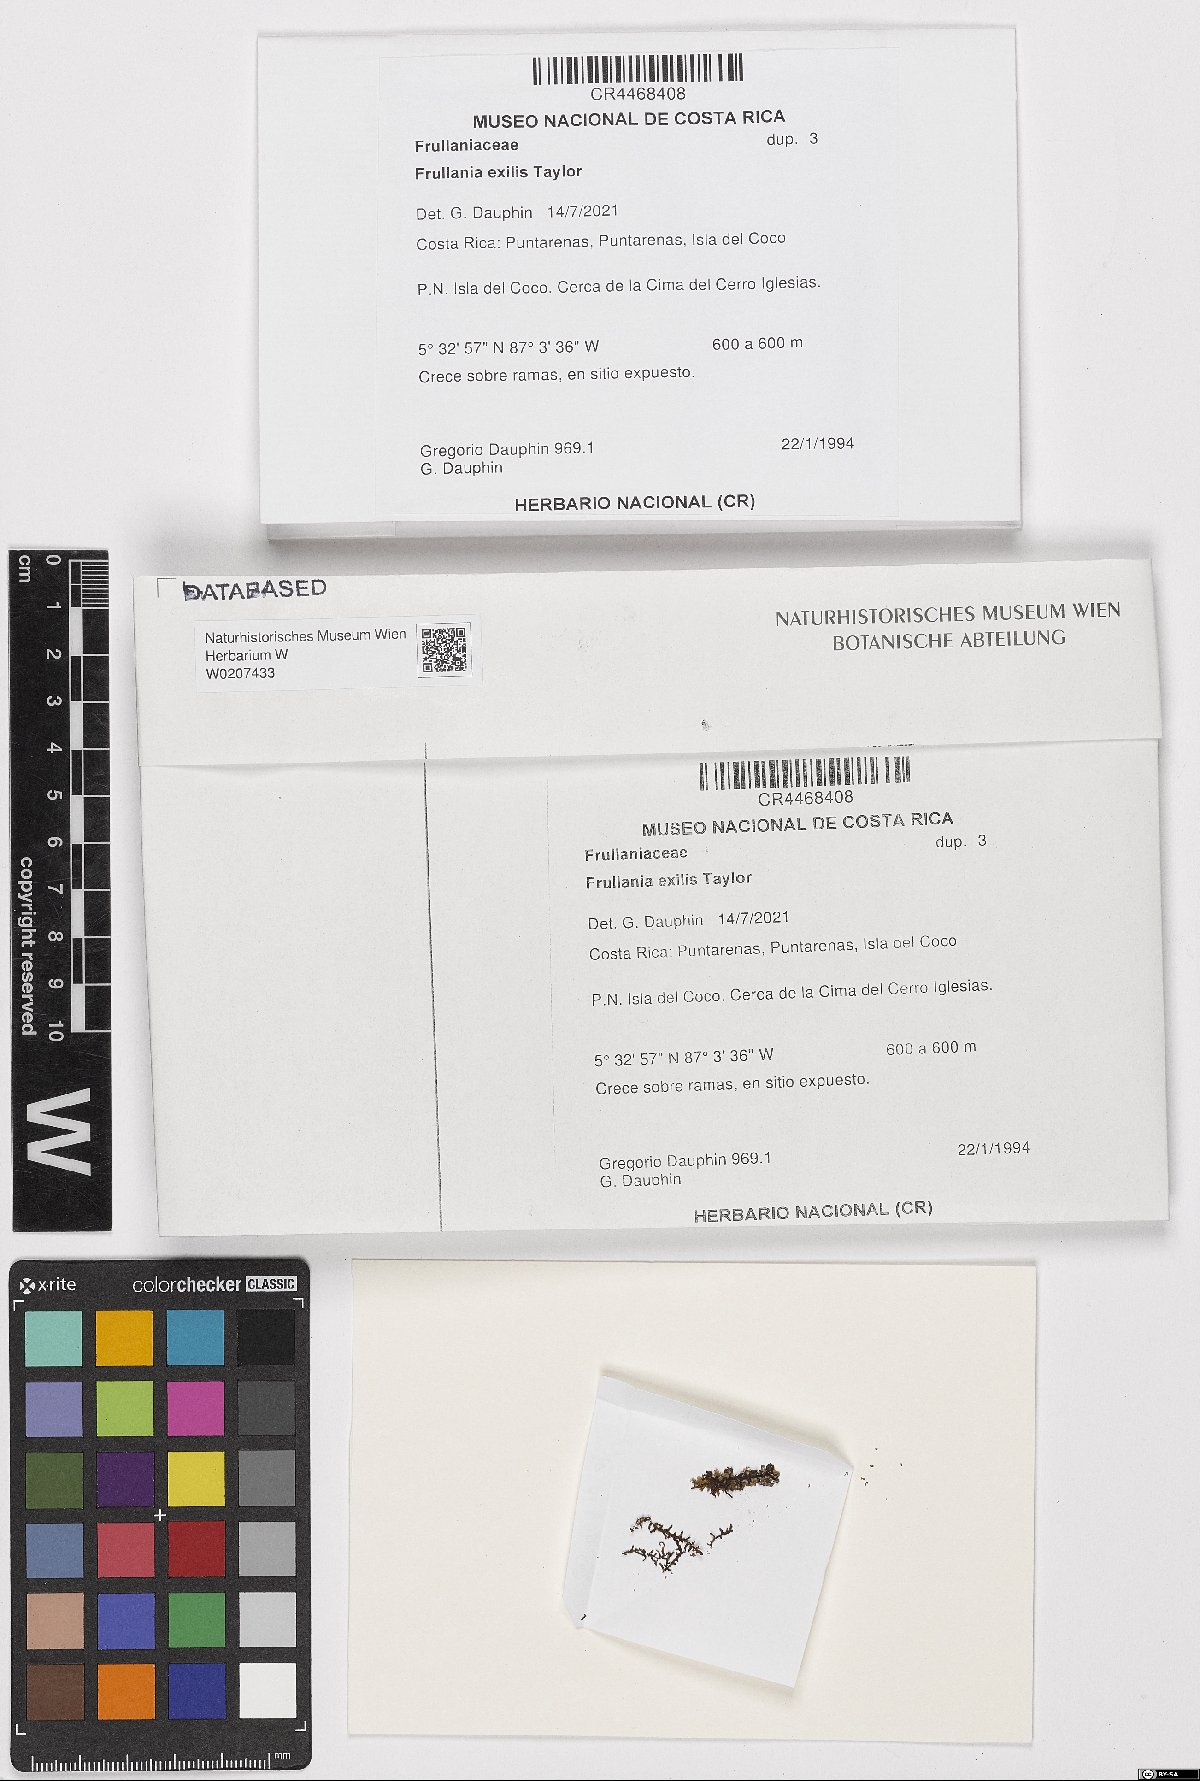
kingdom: Plantae
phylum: Marchantiophyta
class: Jungermanniopsida
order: Porellales
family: Frullaniaceae
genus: Frullania
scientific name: Frullania subtilissima
